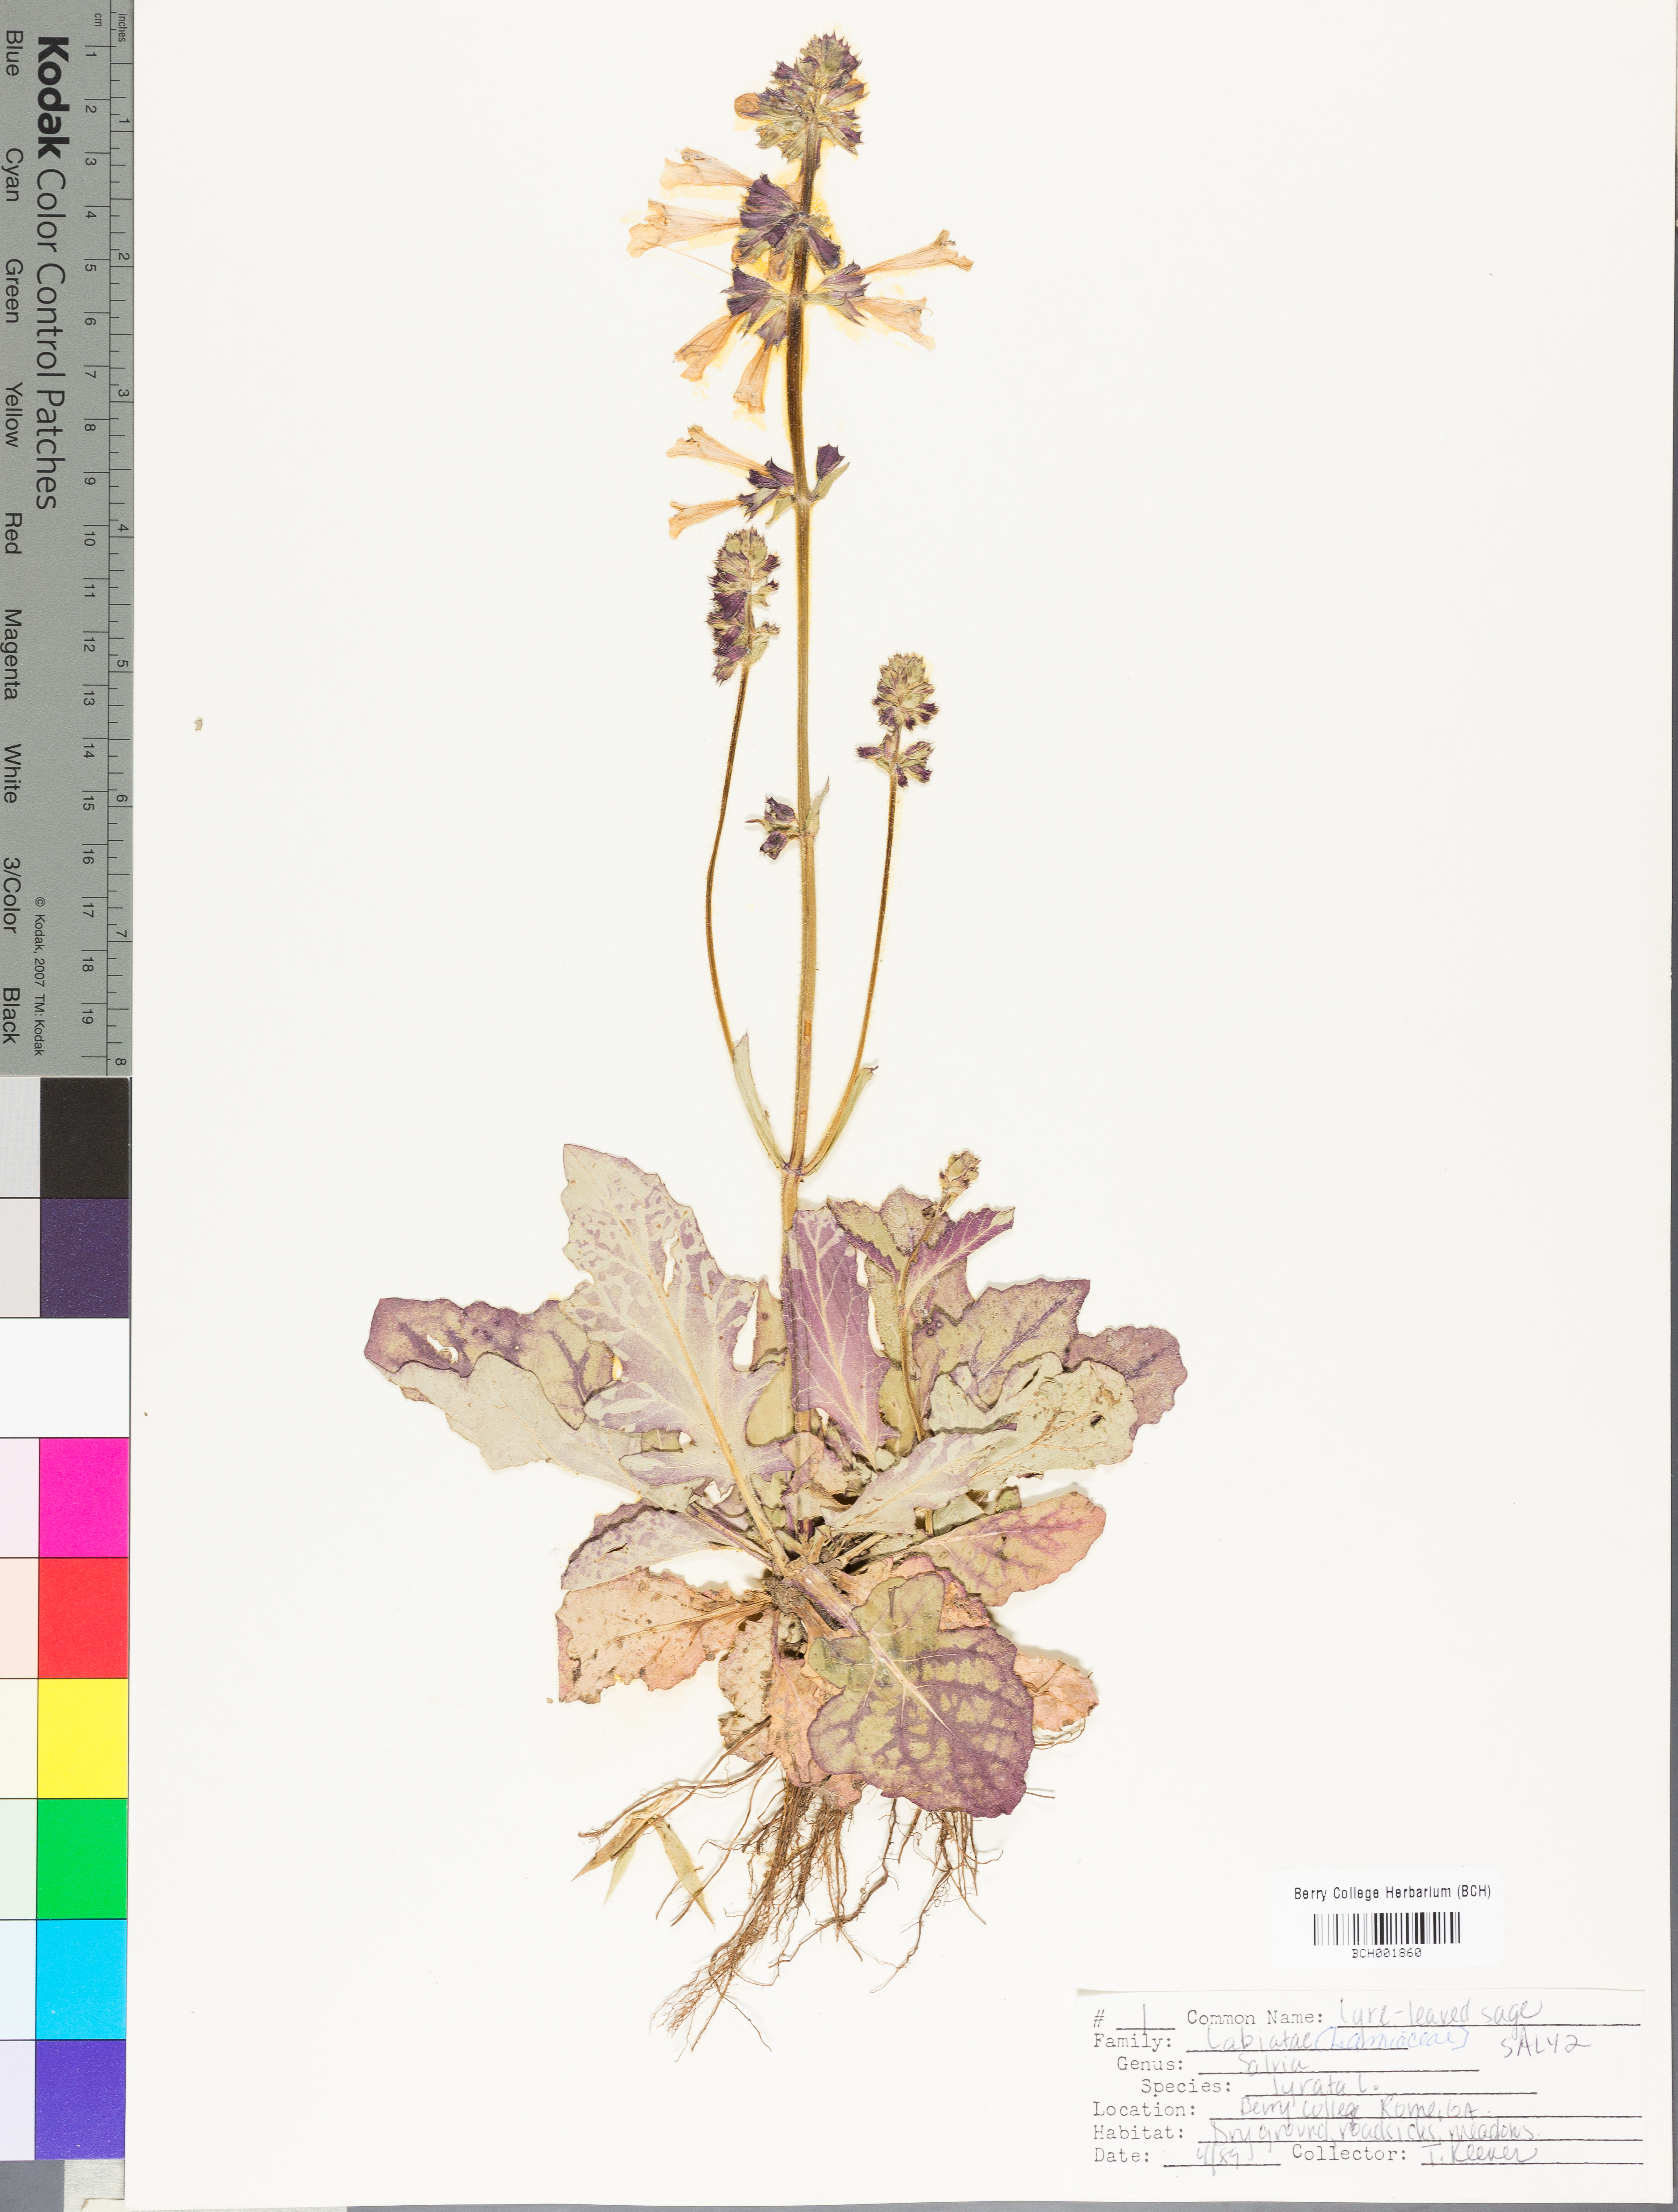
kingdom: Plantae
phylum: Tracheophyta
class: Magnoliopsida
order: Lamiales
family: Lamiaceae
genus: Salvia
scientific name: Salvia lyrata
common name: Cancerweed
